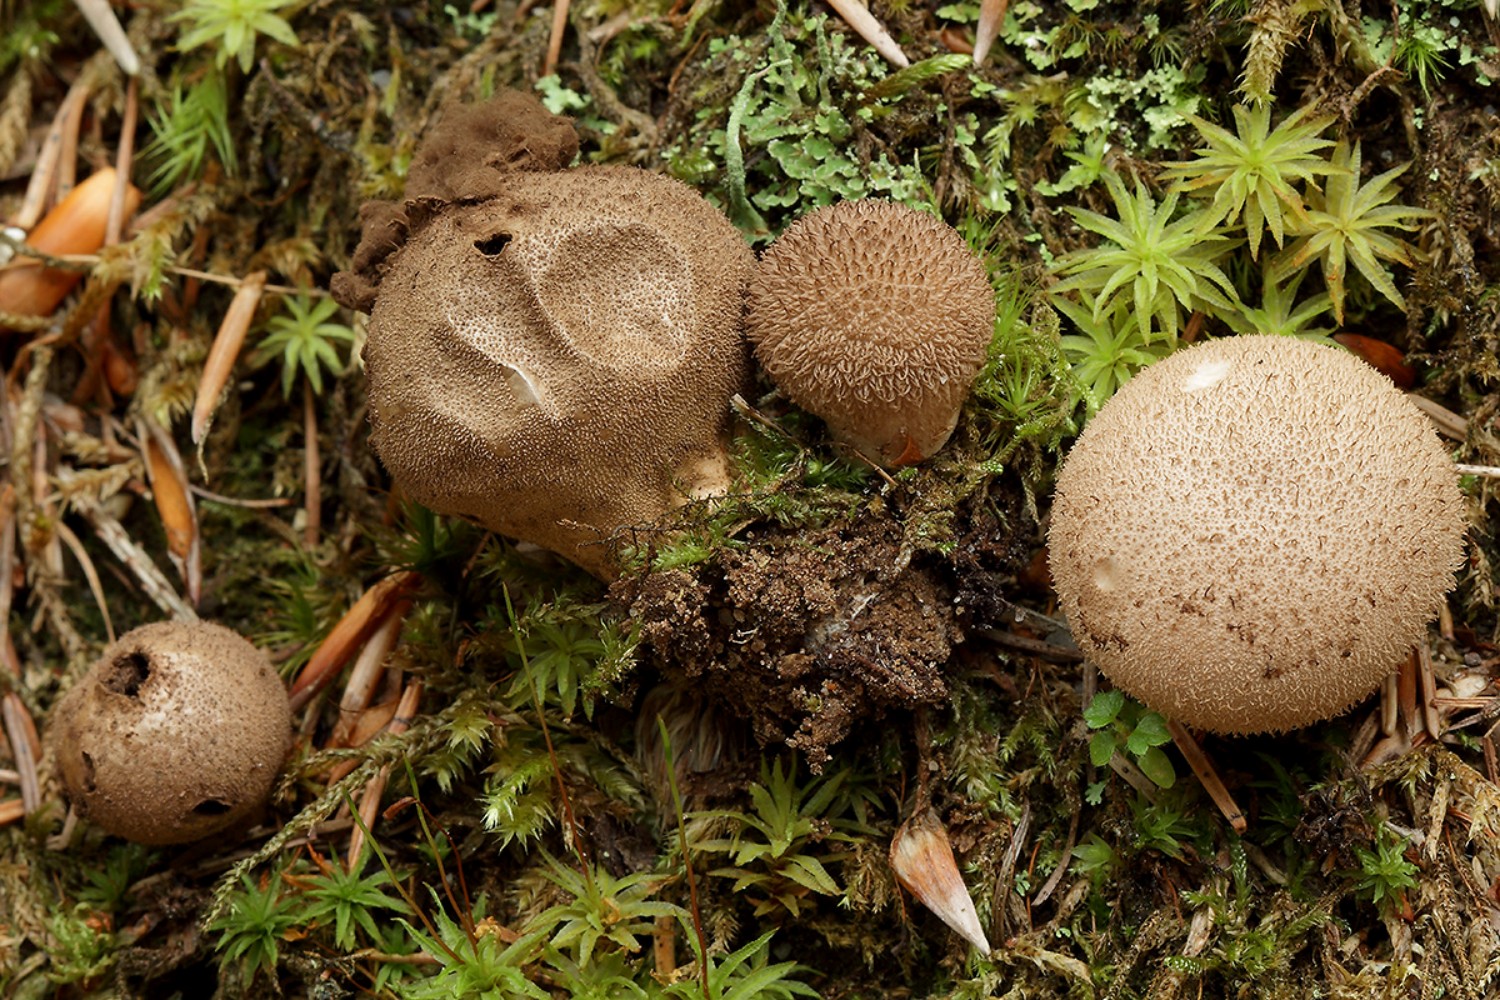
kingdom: Fungi
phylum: Basidiomycota
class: Agaricomycetes
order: Agaricales
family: Lycoperdaceae
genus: Lycoperdon
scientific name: Lycoperdon nigrescens
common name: sortagtig støvbold
